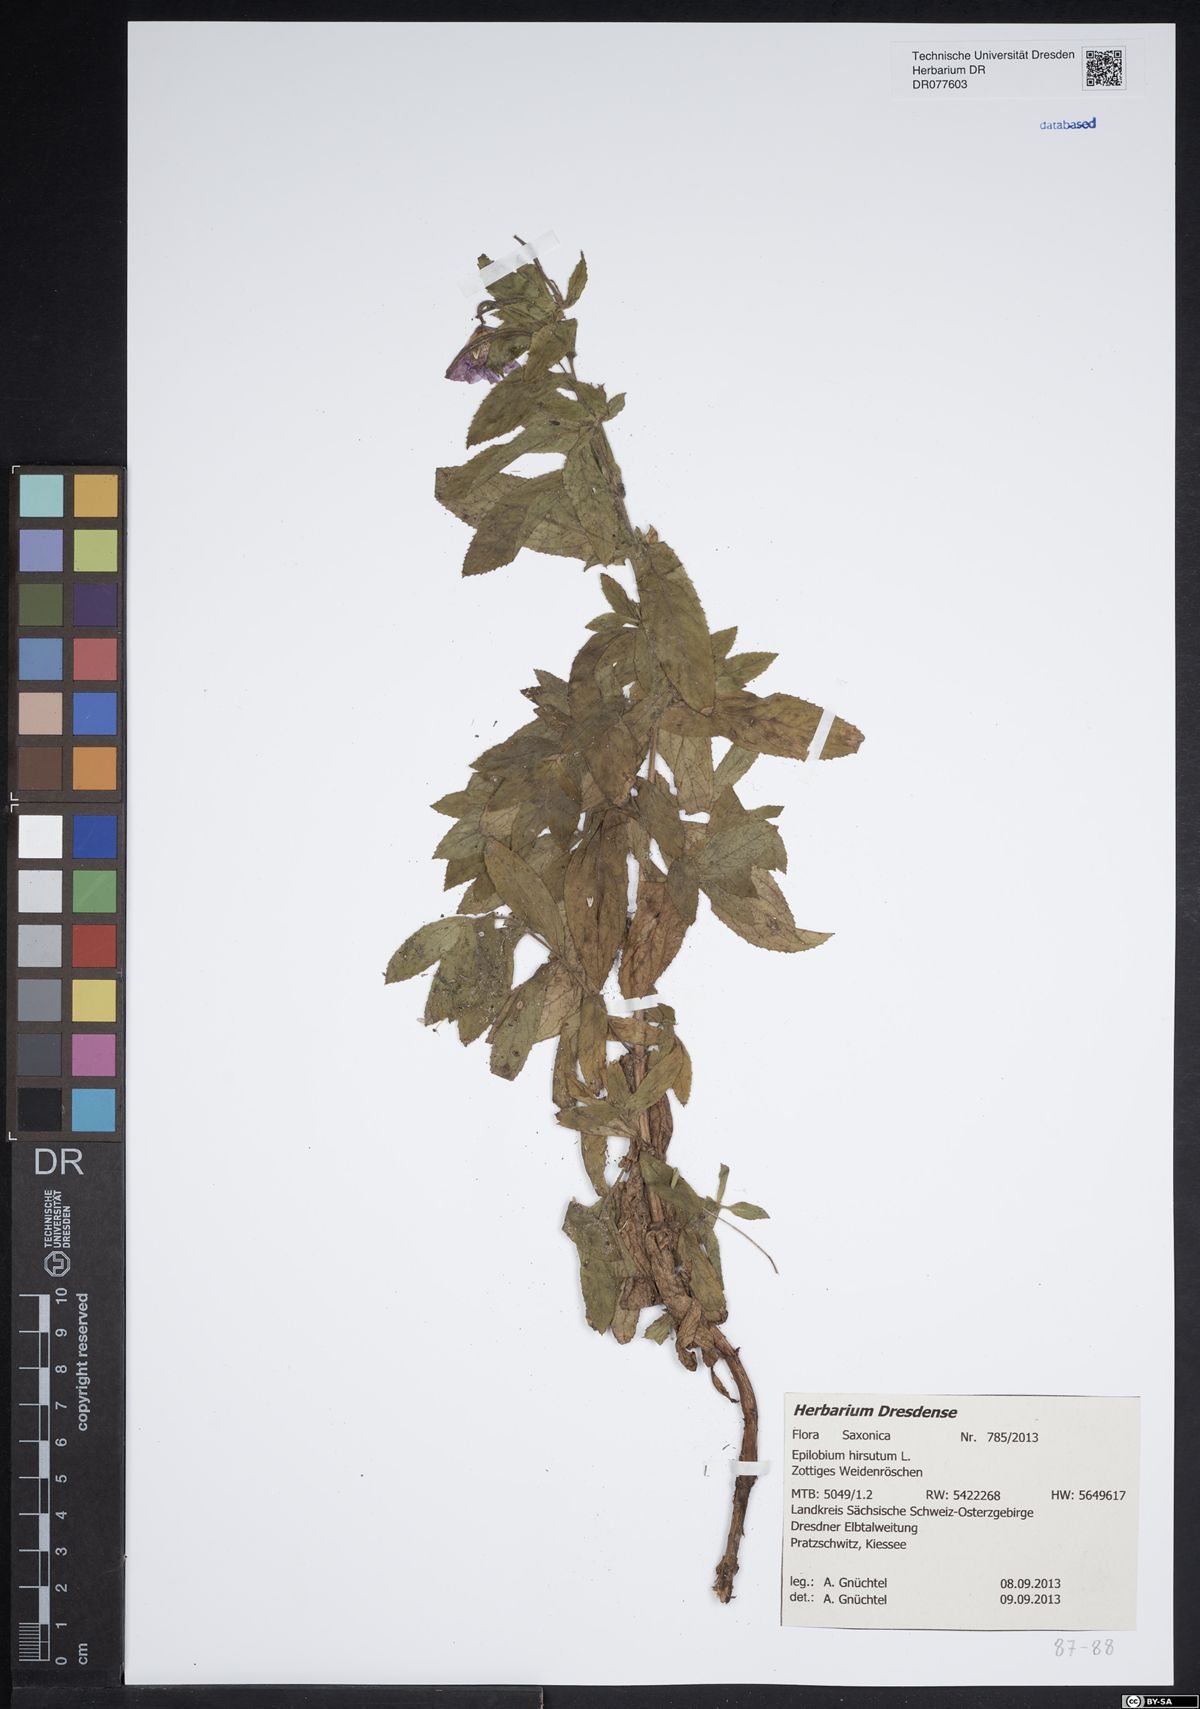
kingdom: Plantae
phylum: Tracheophyta
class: Magnoliopsida
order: Myrtales
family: Onagraceae
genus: Epilobium
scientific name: Epilobium hirsutum
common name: Great willowherb
